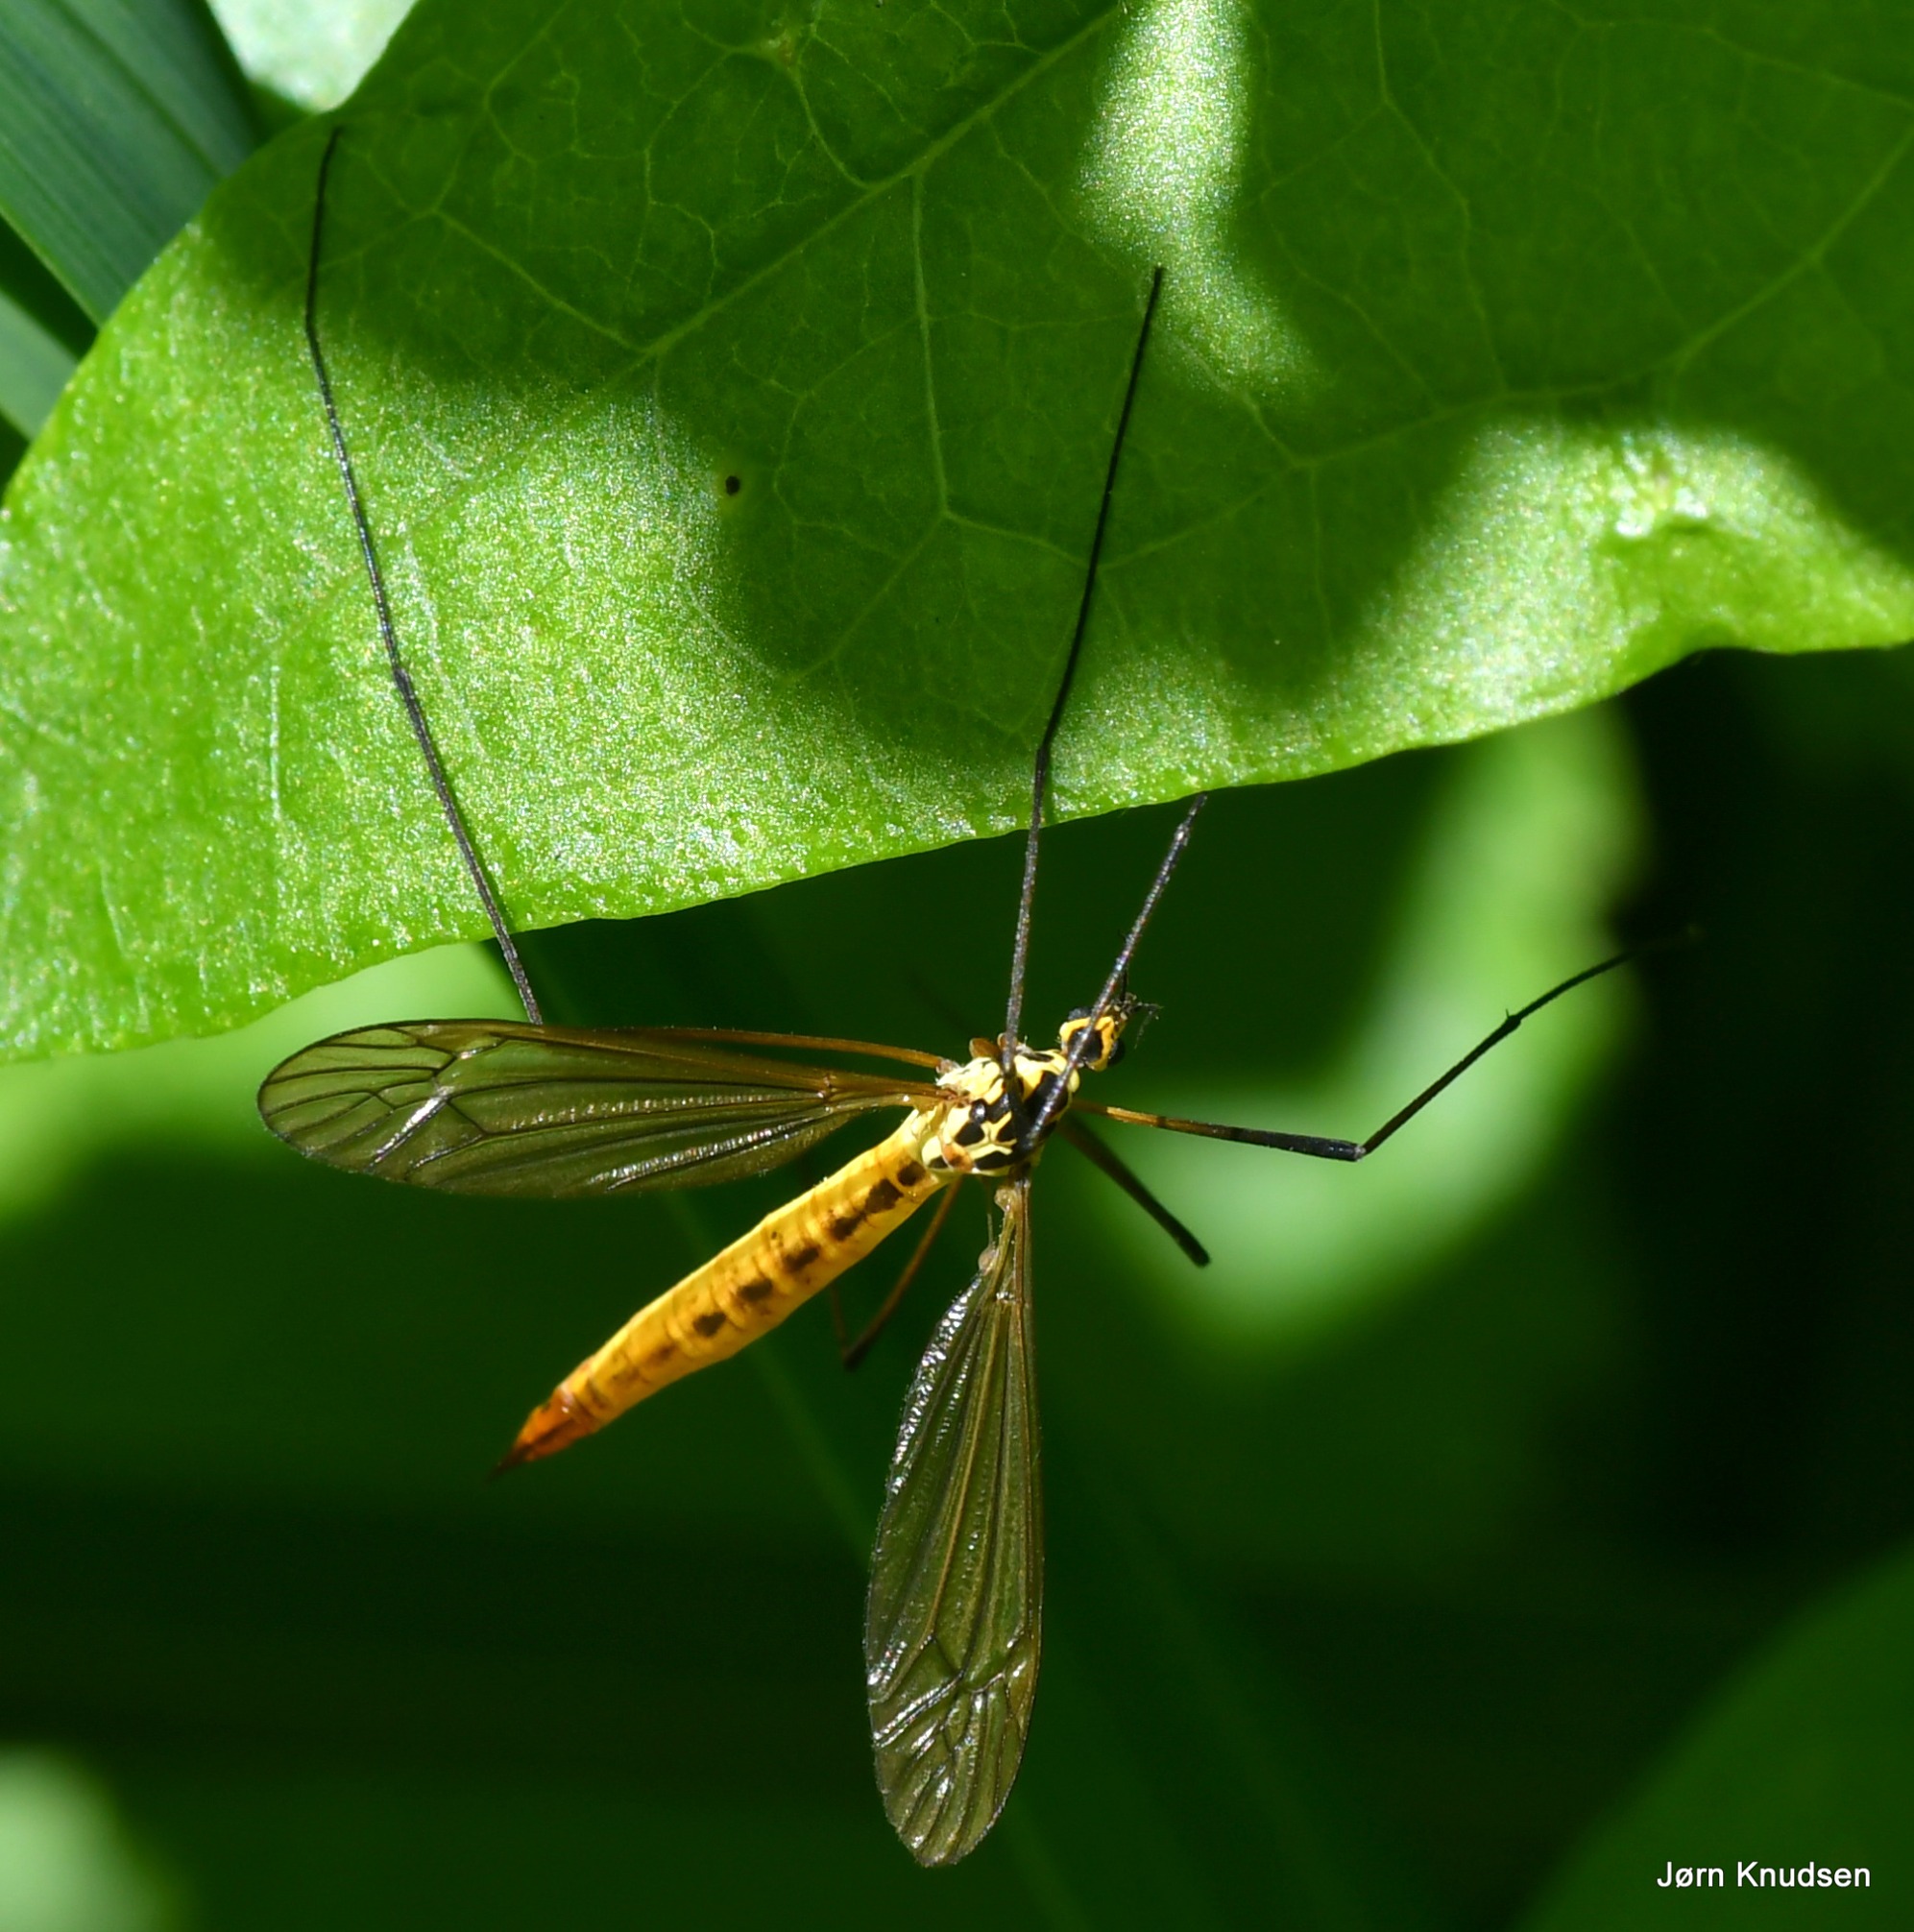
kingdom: Animalia
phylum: Arthropoda
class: Insecta
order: Diptera
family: Tipulidae
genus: Nephrotoma
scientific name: Nephrotoma flavescens
